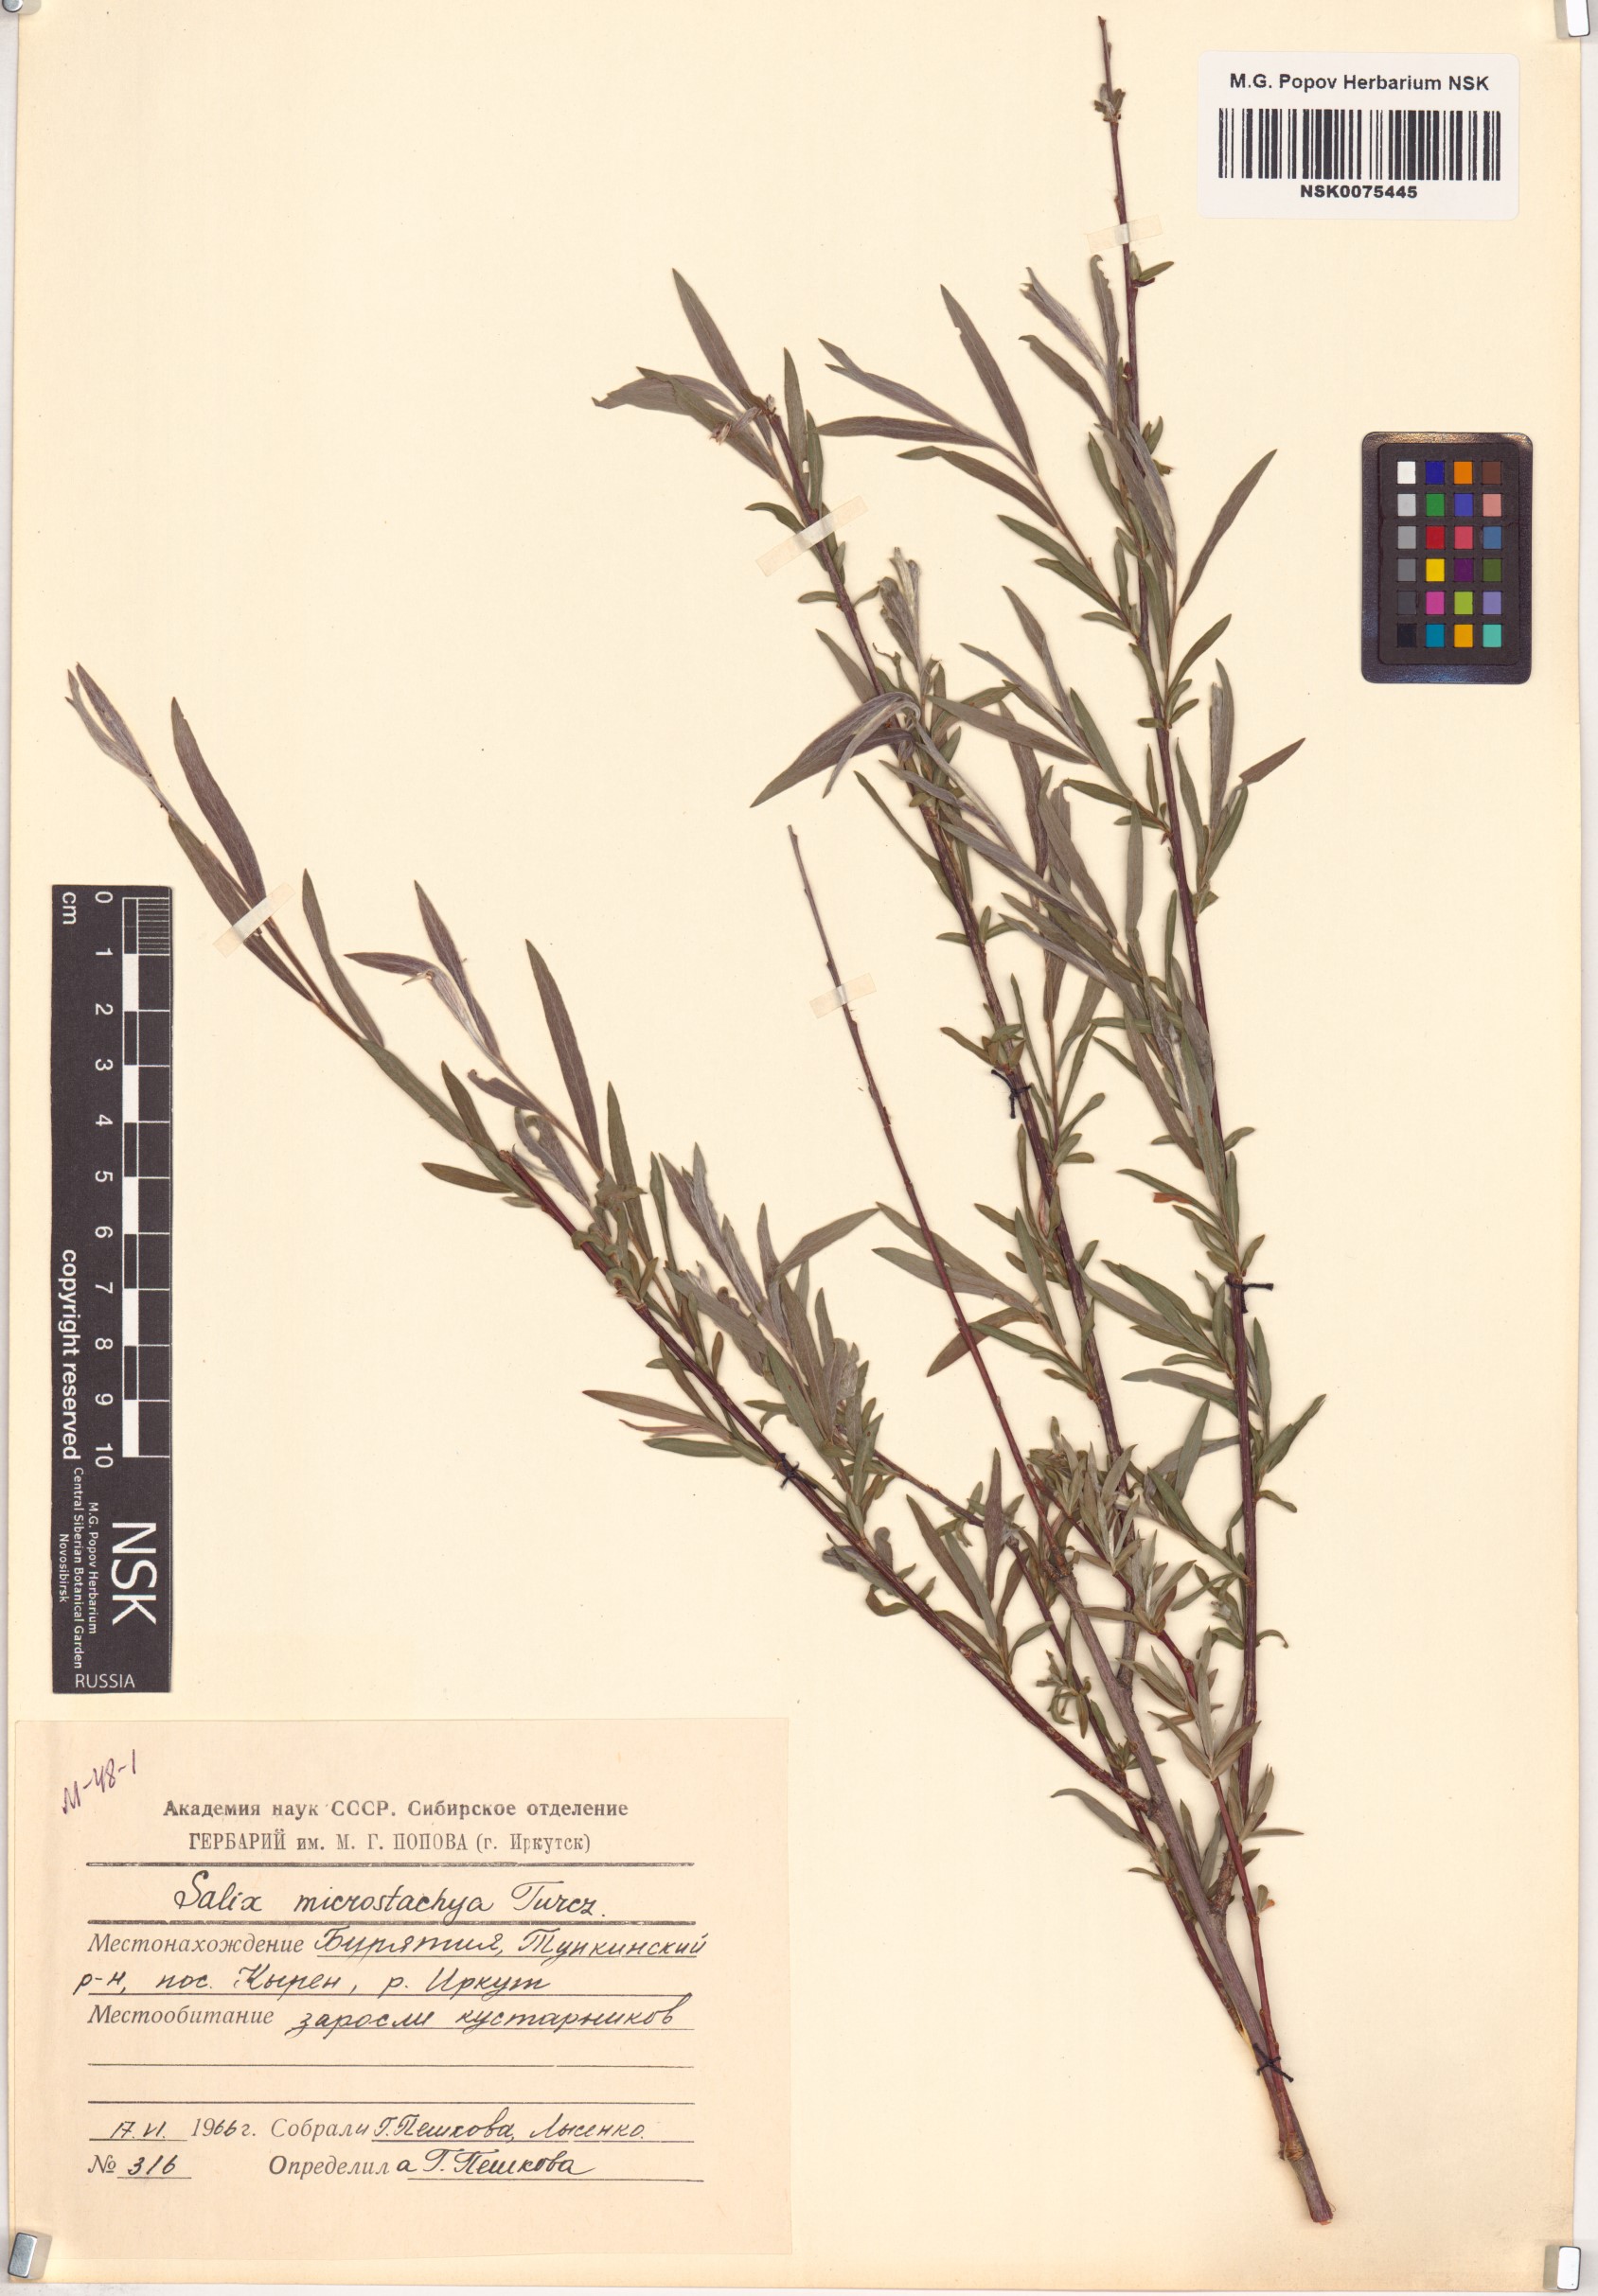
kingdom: Plantae
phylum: Tracheophyta
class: Magnoliopsida
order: Malpighiales
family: Salicaceae
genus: Salix
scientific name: Salix microstachya
